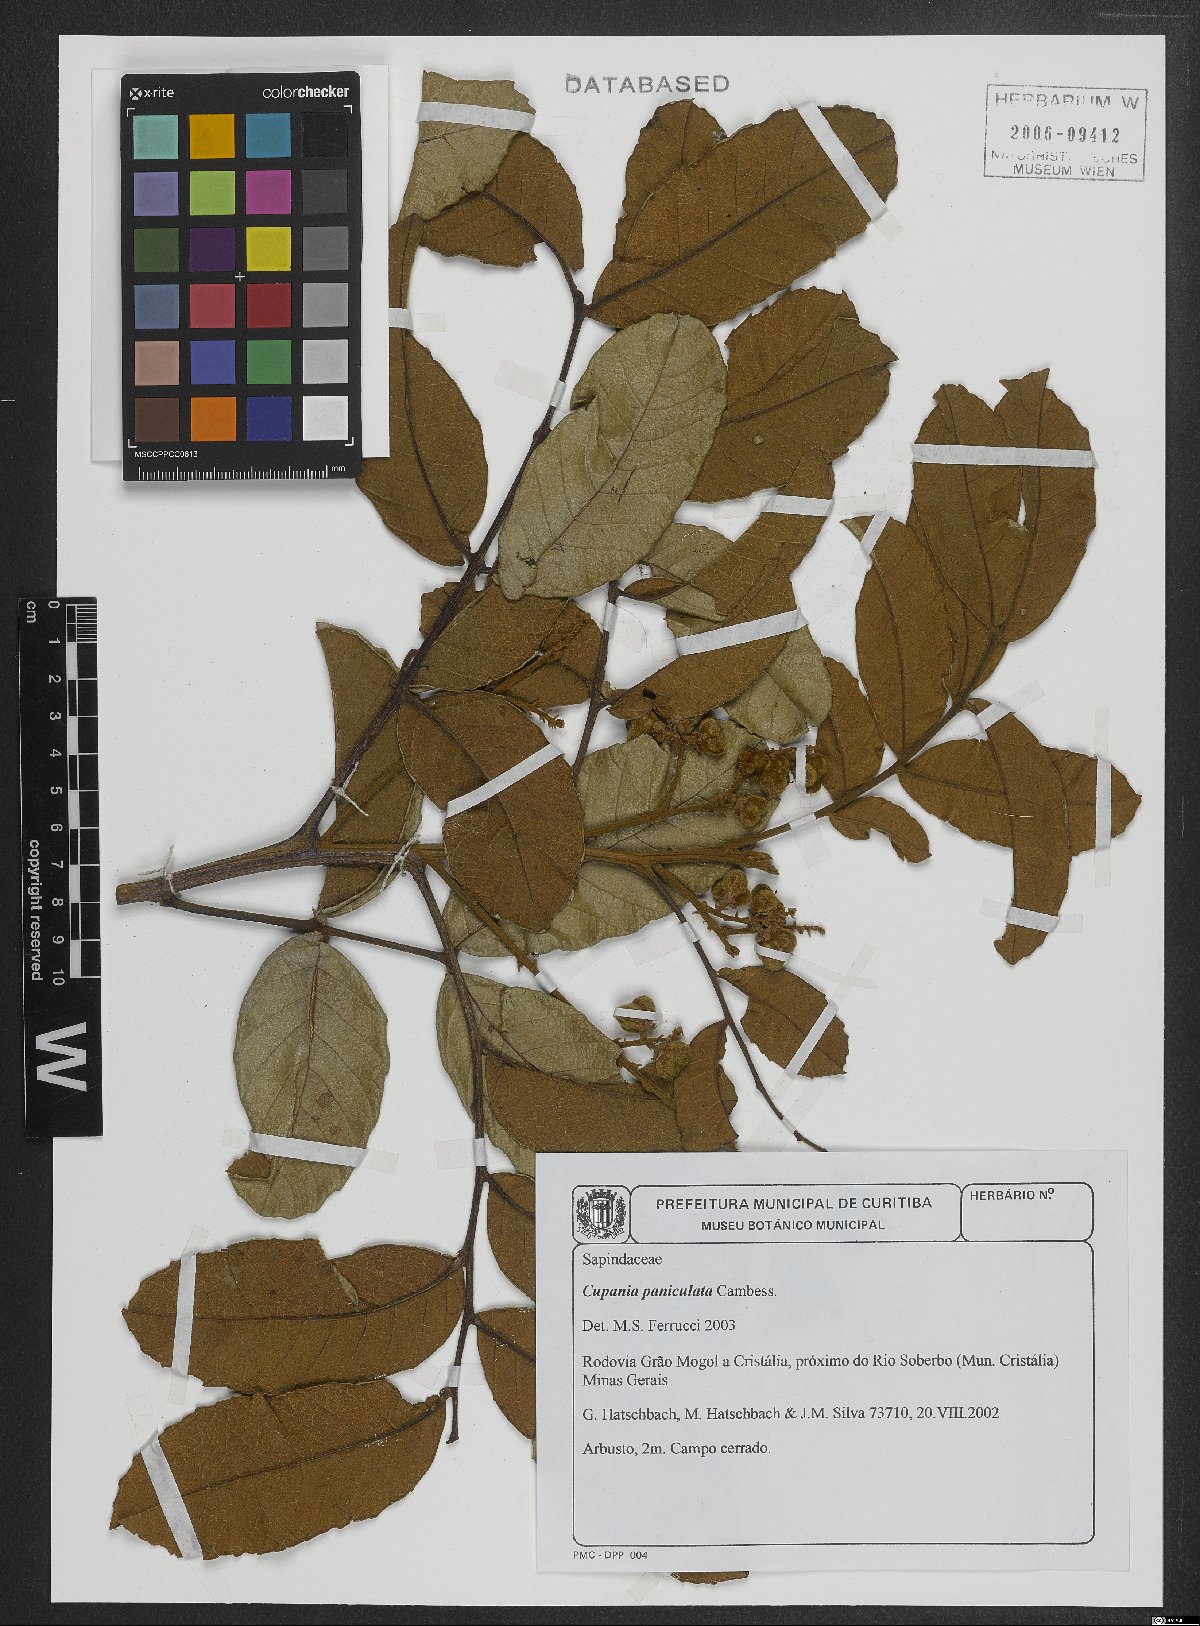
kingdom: Plantae
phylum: Tracheophyta
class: Magnoliopsida
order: Sapindales
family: Sapindaceae
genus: Cupania
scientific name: Cupania paniculata
